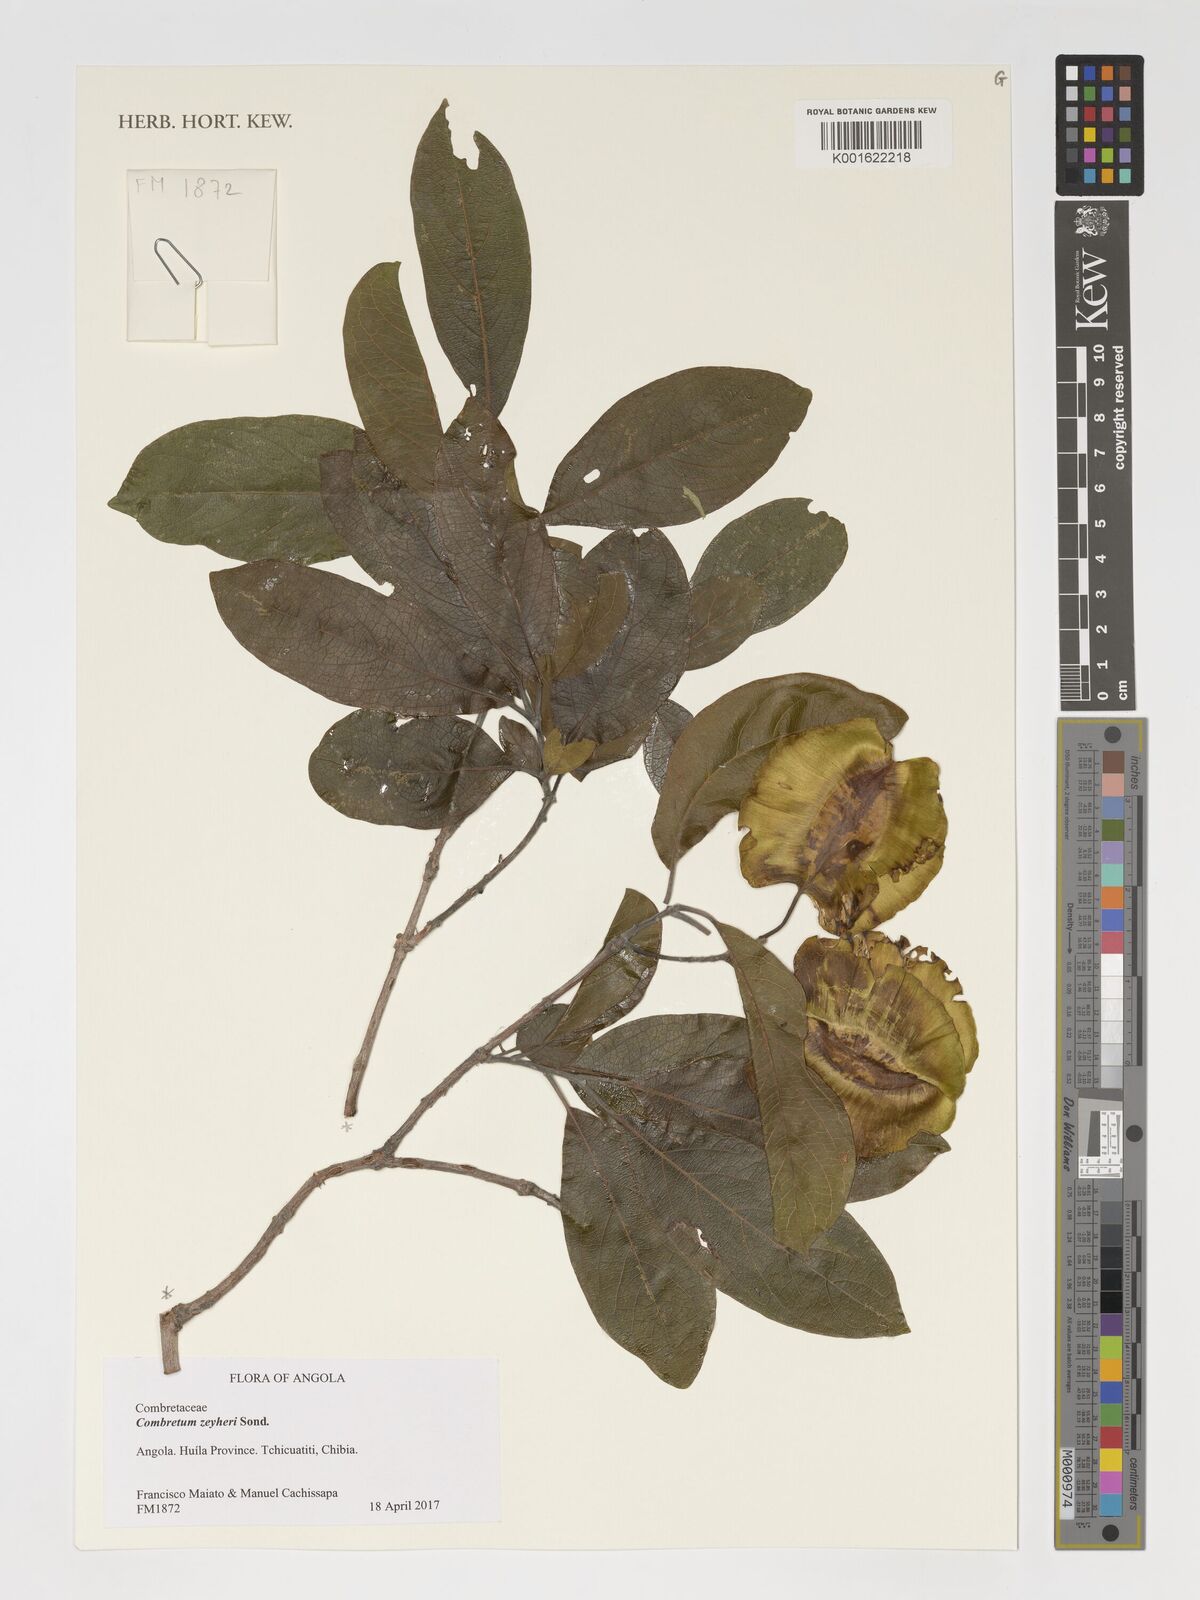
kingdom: Plantae
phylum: Tracheophyta
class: Magnoliopsida
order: Myrtales
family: Combretaceae
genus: Combretum
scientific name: Combretum zeyheri
